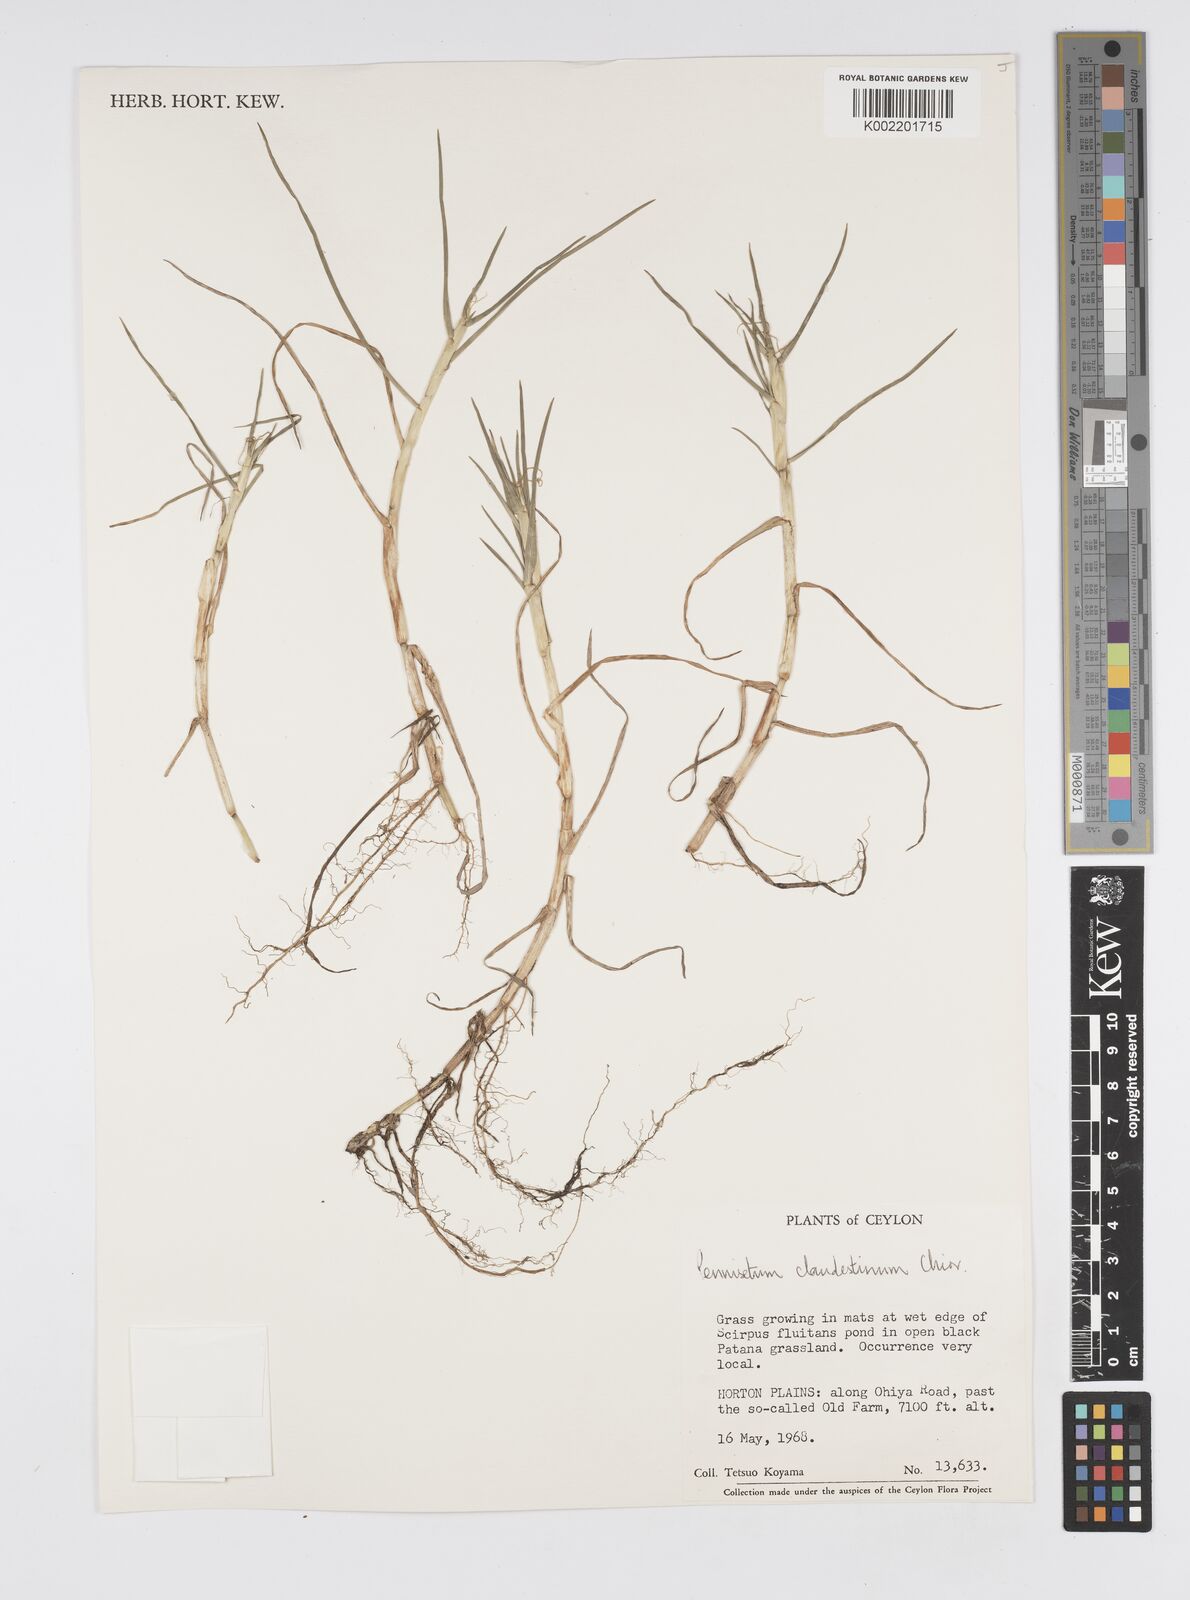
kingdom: Plantae
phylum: Tracheophyta
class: Liliopsida
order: Poales
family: Poaceae
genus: Cenchrus
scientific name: Cenchrus clandestinus
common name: Kikuyugrass
